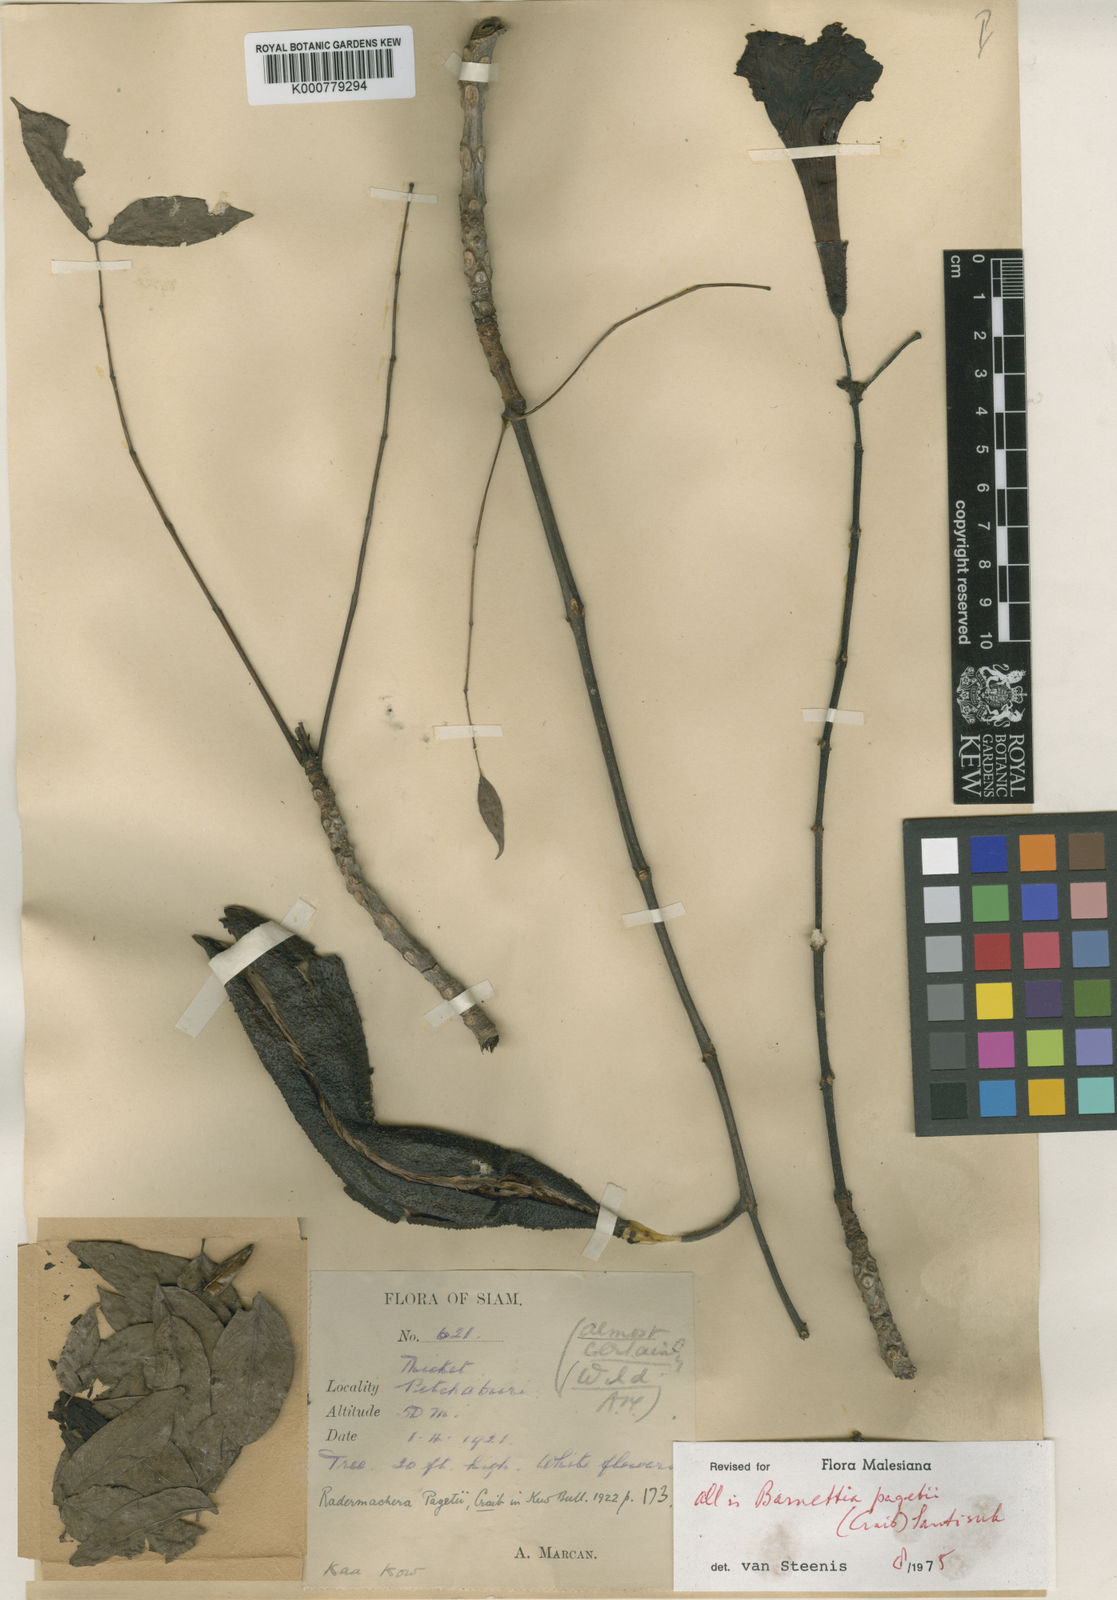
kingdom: Plantae
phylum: Tracheophyta
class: Magnoliopsida
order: Lamiales
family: Bignoniaceae
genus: Santisukia
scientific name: Santisukia pagetii
